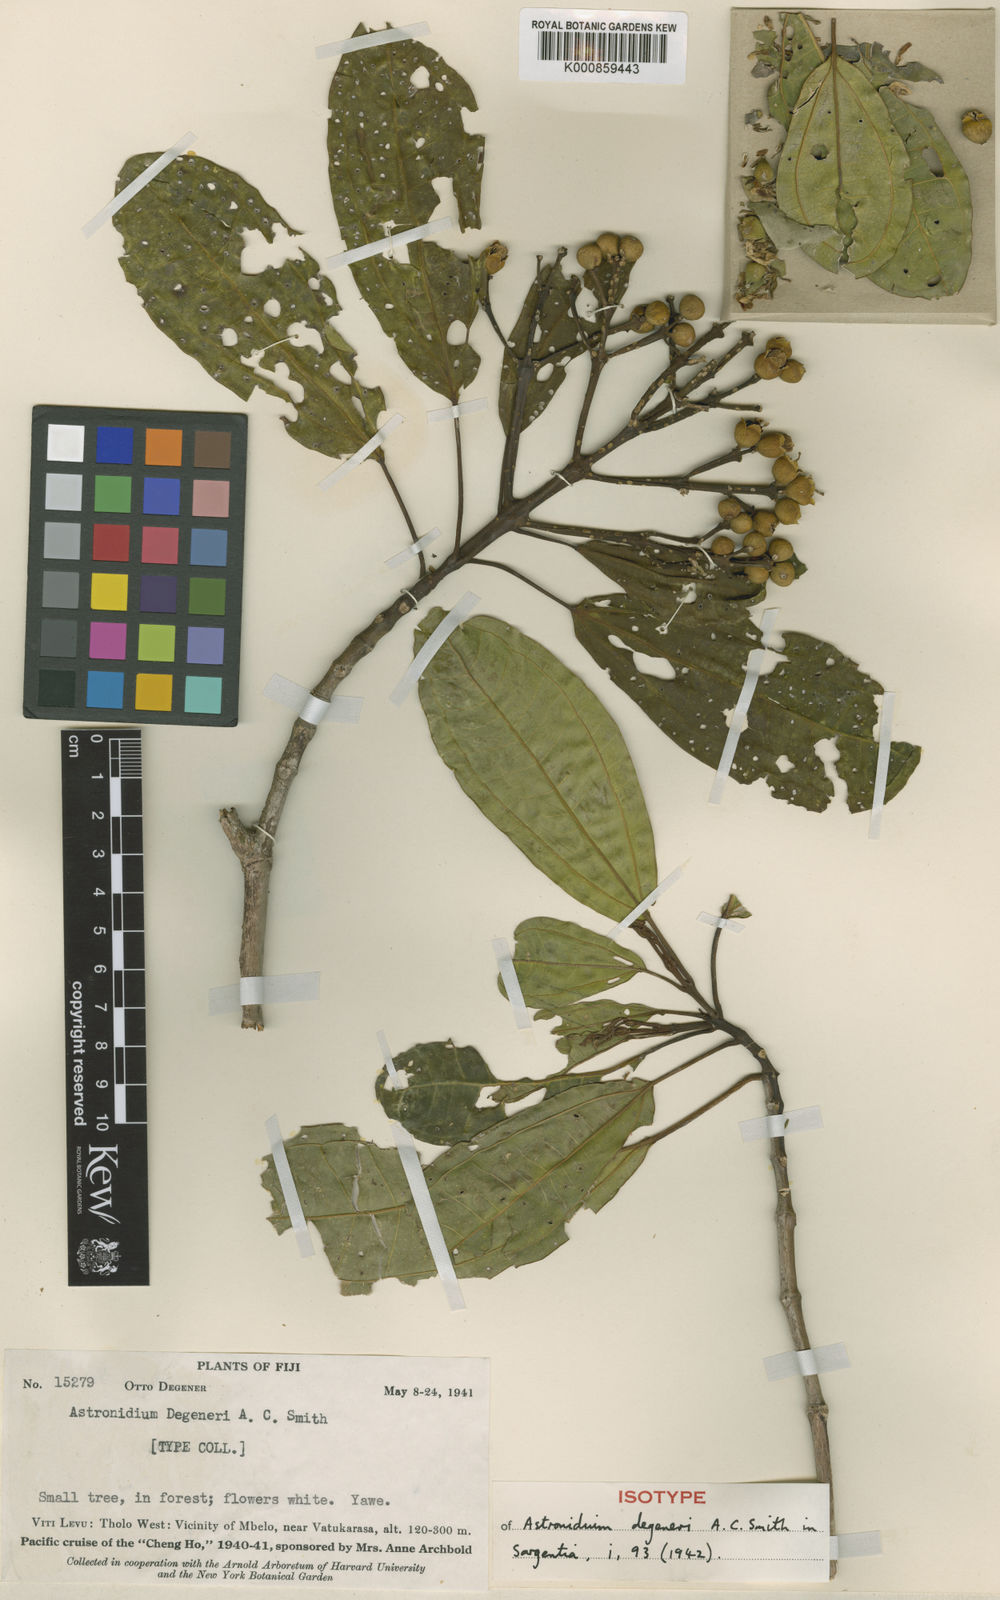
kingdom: Plantae
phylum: Tracheophyta
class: Magnoliopsida
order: Myrtales
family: Melastomataceae
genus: Astronidium
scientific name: Astronidium degeneri
